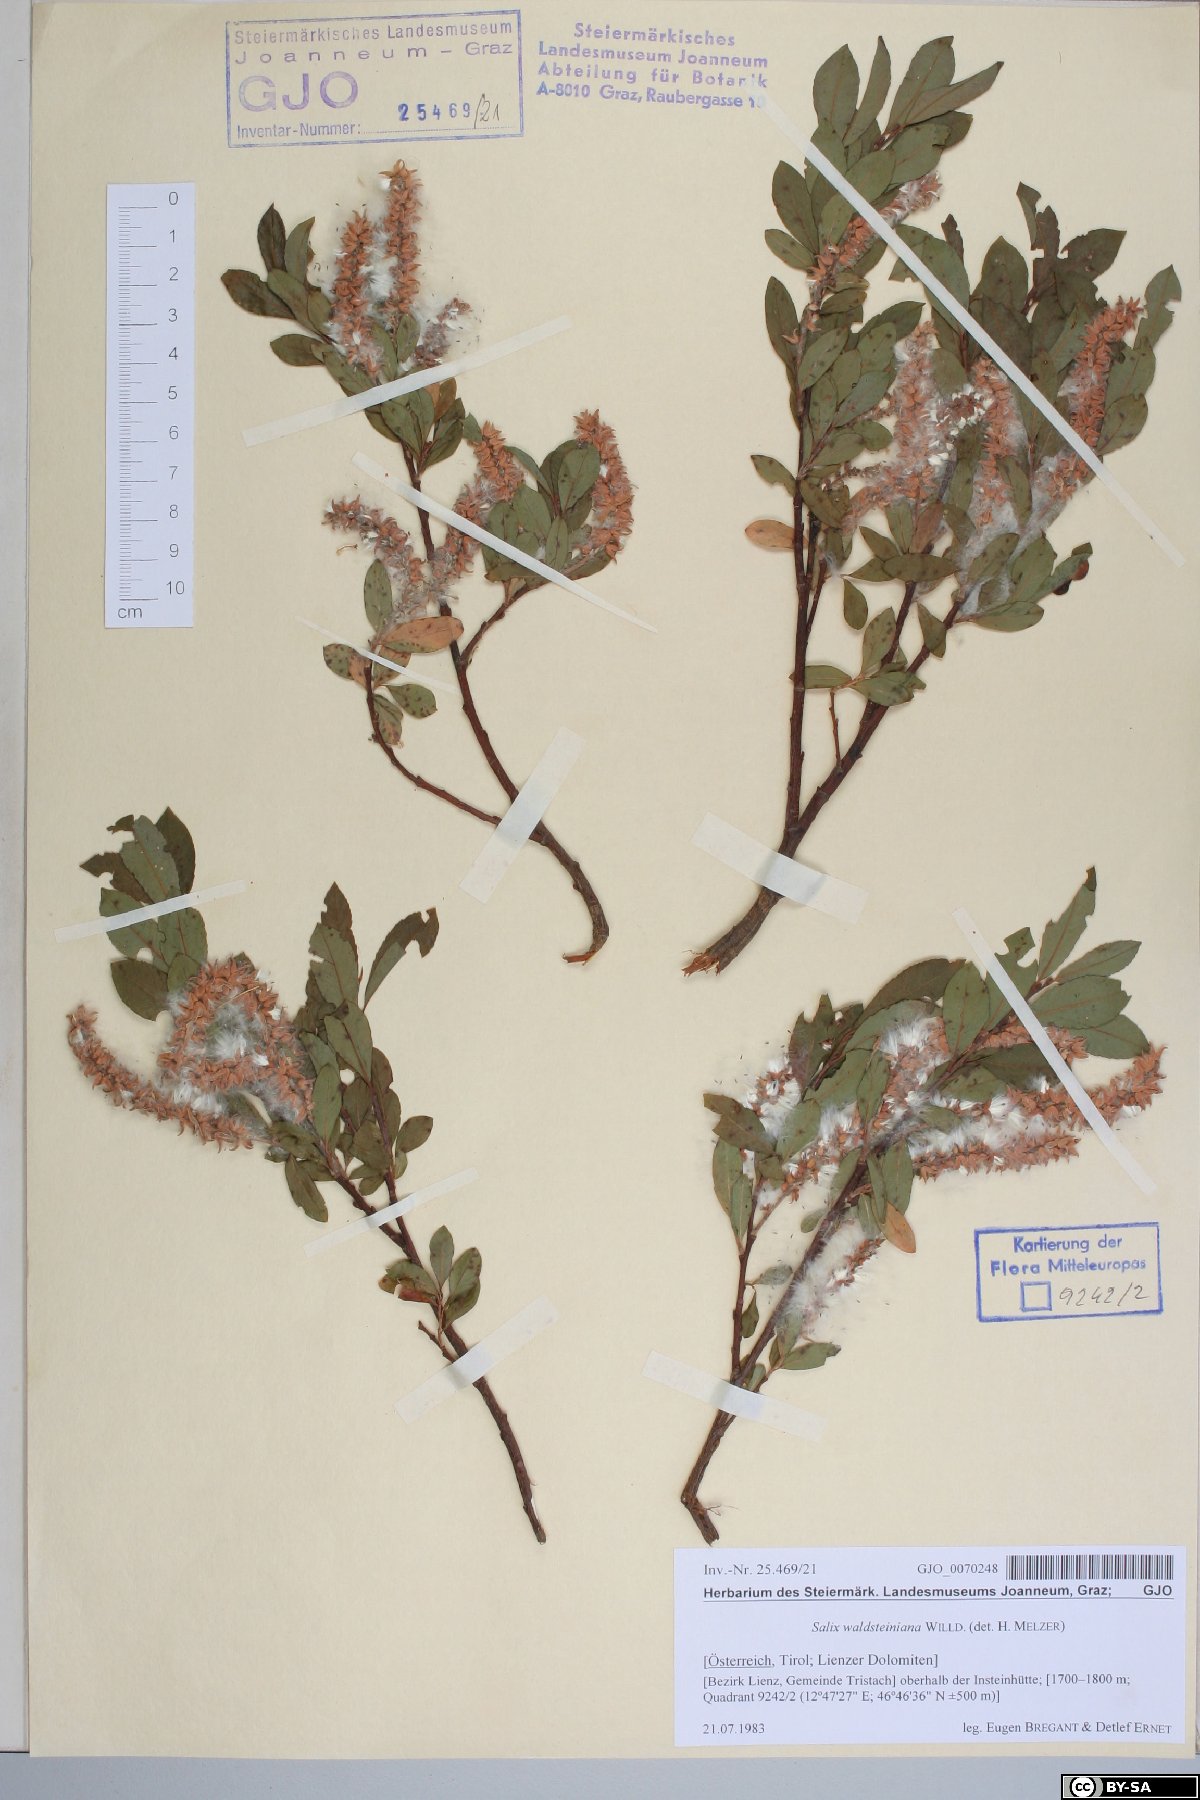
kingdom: Plantae
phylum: Tracheophyta
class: Magnoliopsida
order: Malpighiales
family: Salicaceae
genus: Salix
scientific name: Salix waldsteiniana
